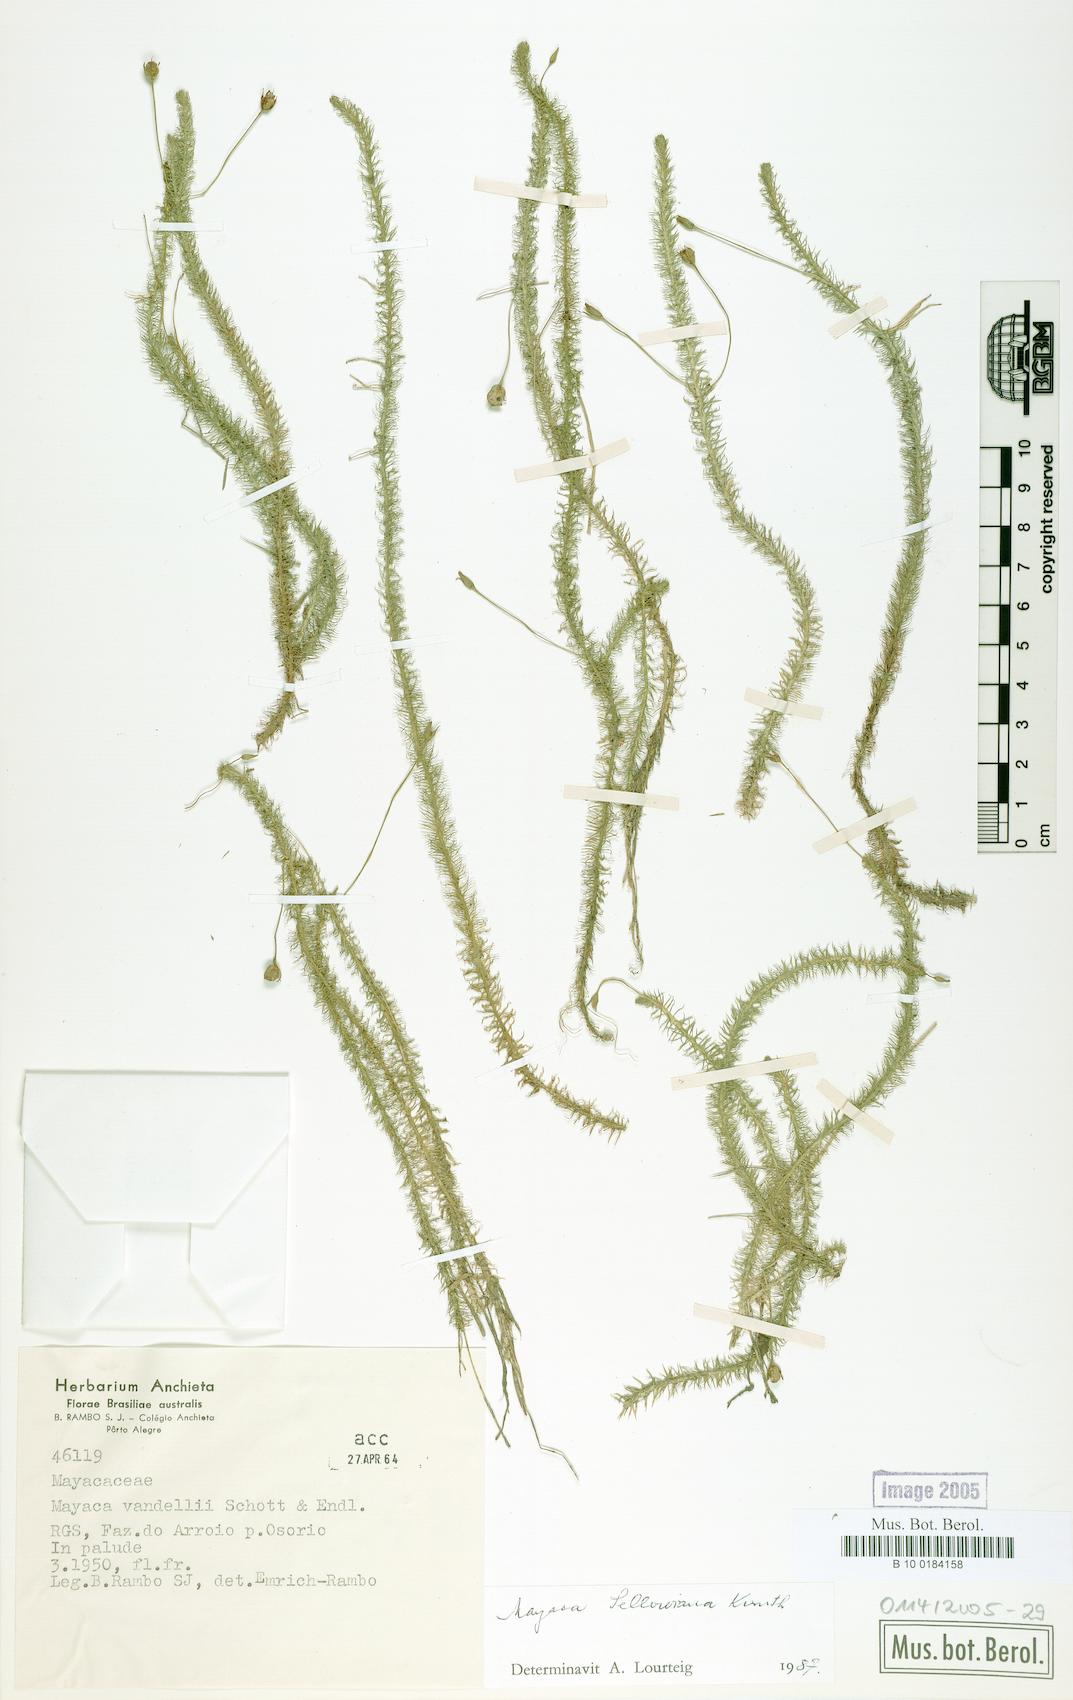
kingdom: Plantae
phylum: Tracheophyta
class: Liliopsida
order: Poales
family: Mayacaceae
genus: Mayaca
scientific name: Mayaca sellowiana
